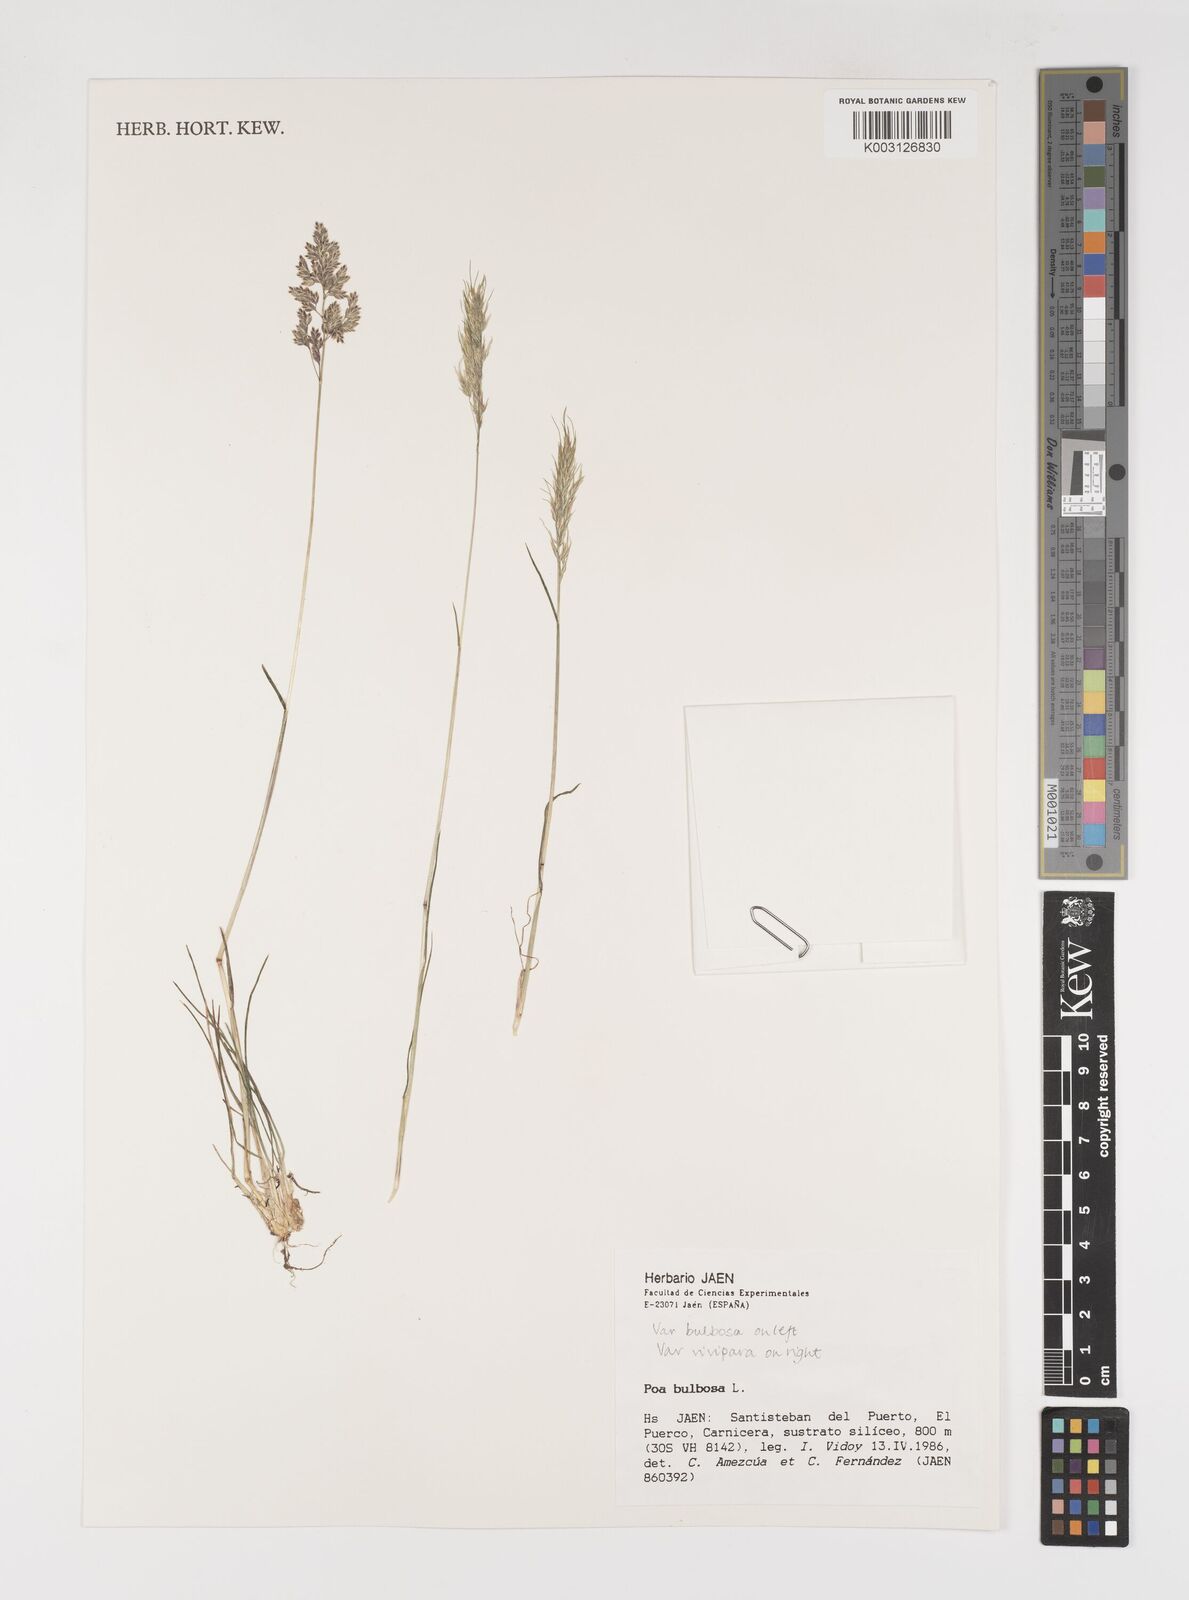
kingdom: Plantae
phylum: Tracheophyta
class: Liliopsida
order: Poales
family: Poaceae
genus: Poa
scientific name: Poa bulbosa
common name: Bulbous bluegrass
